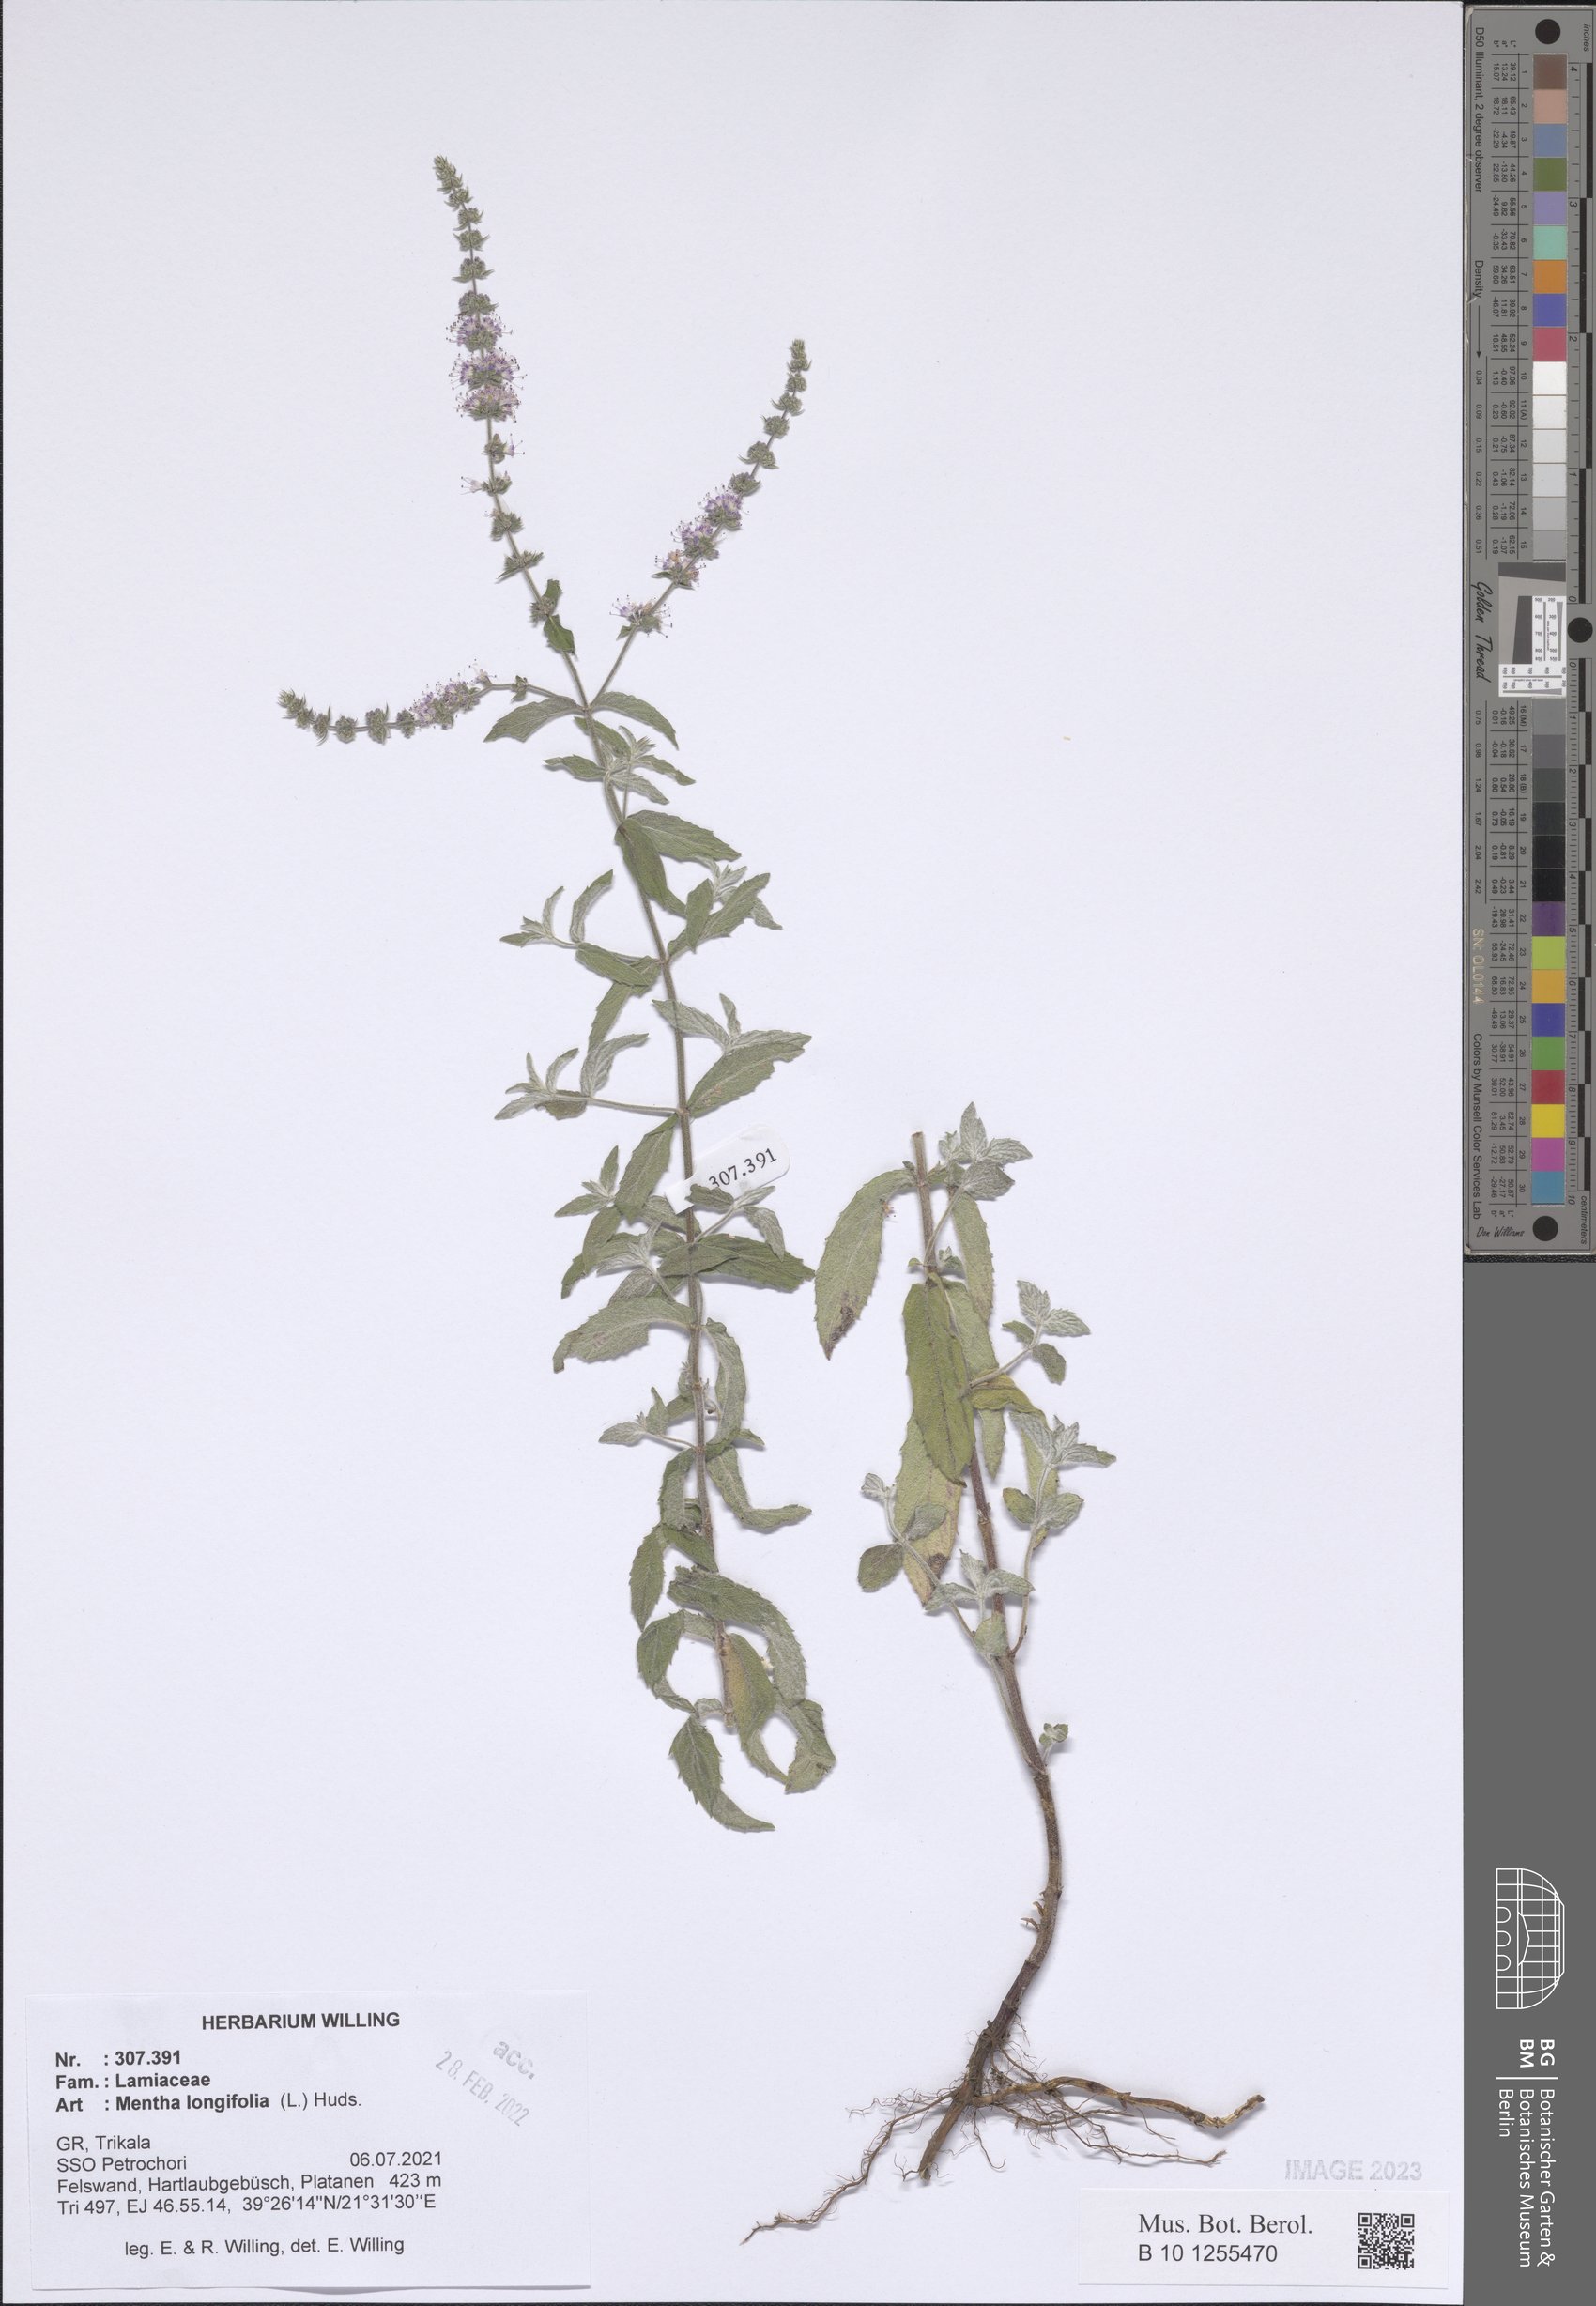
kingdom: Plantae
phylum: Tracheophyta
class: Magnoliopsida
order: Lamiales
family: Lamiaceae
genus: Mentha
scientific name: Mentha longifolia
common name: Horse mint
